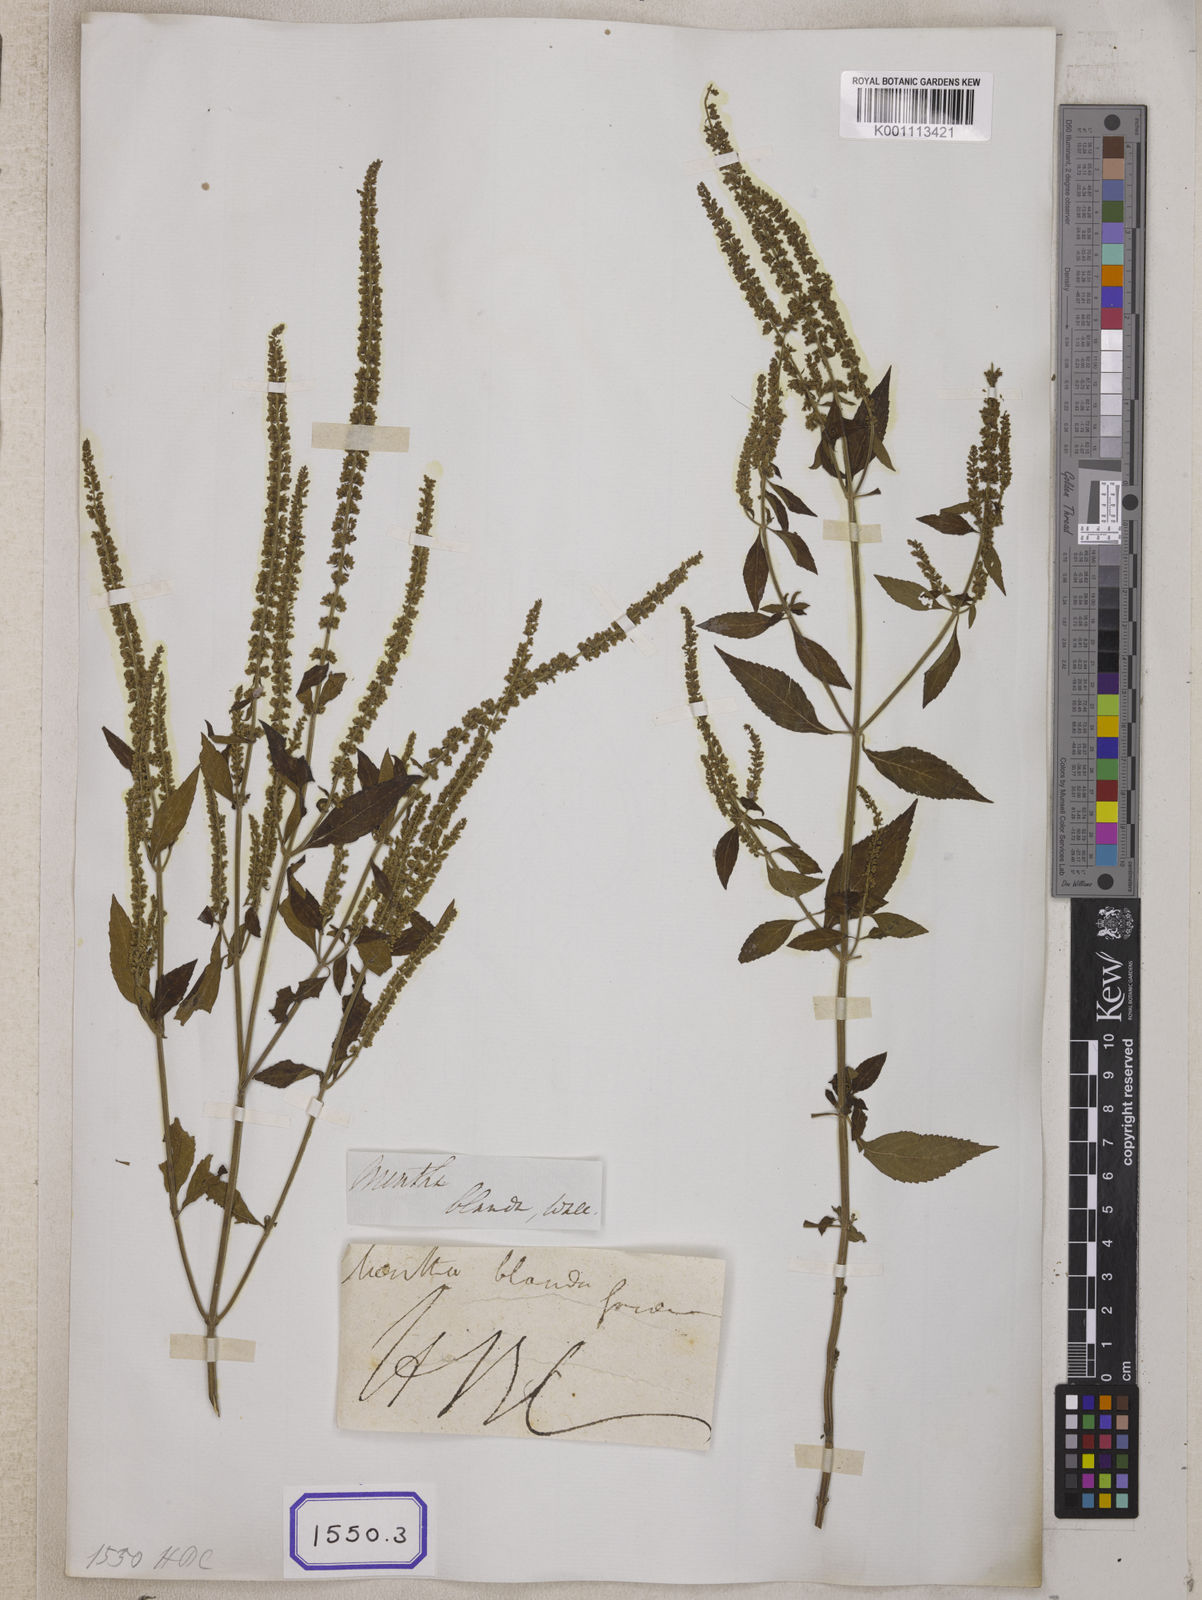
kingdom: Plantae
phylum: Tracheophyta
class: Magnoliopsida
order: Lamiales
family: Lamiaceae
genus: Elsholtzia
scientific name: Elsholtzia blanda
